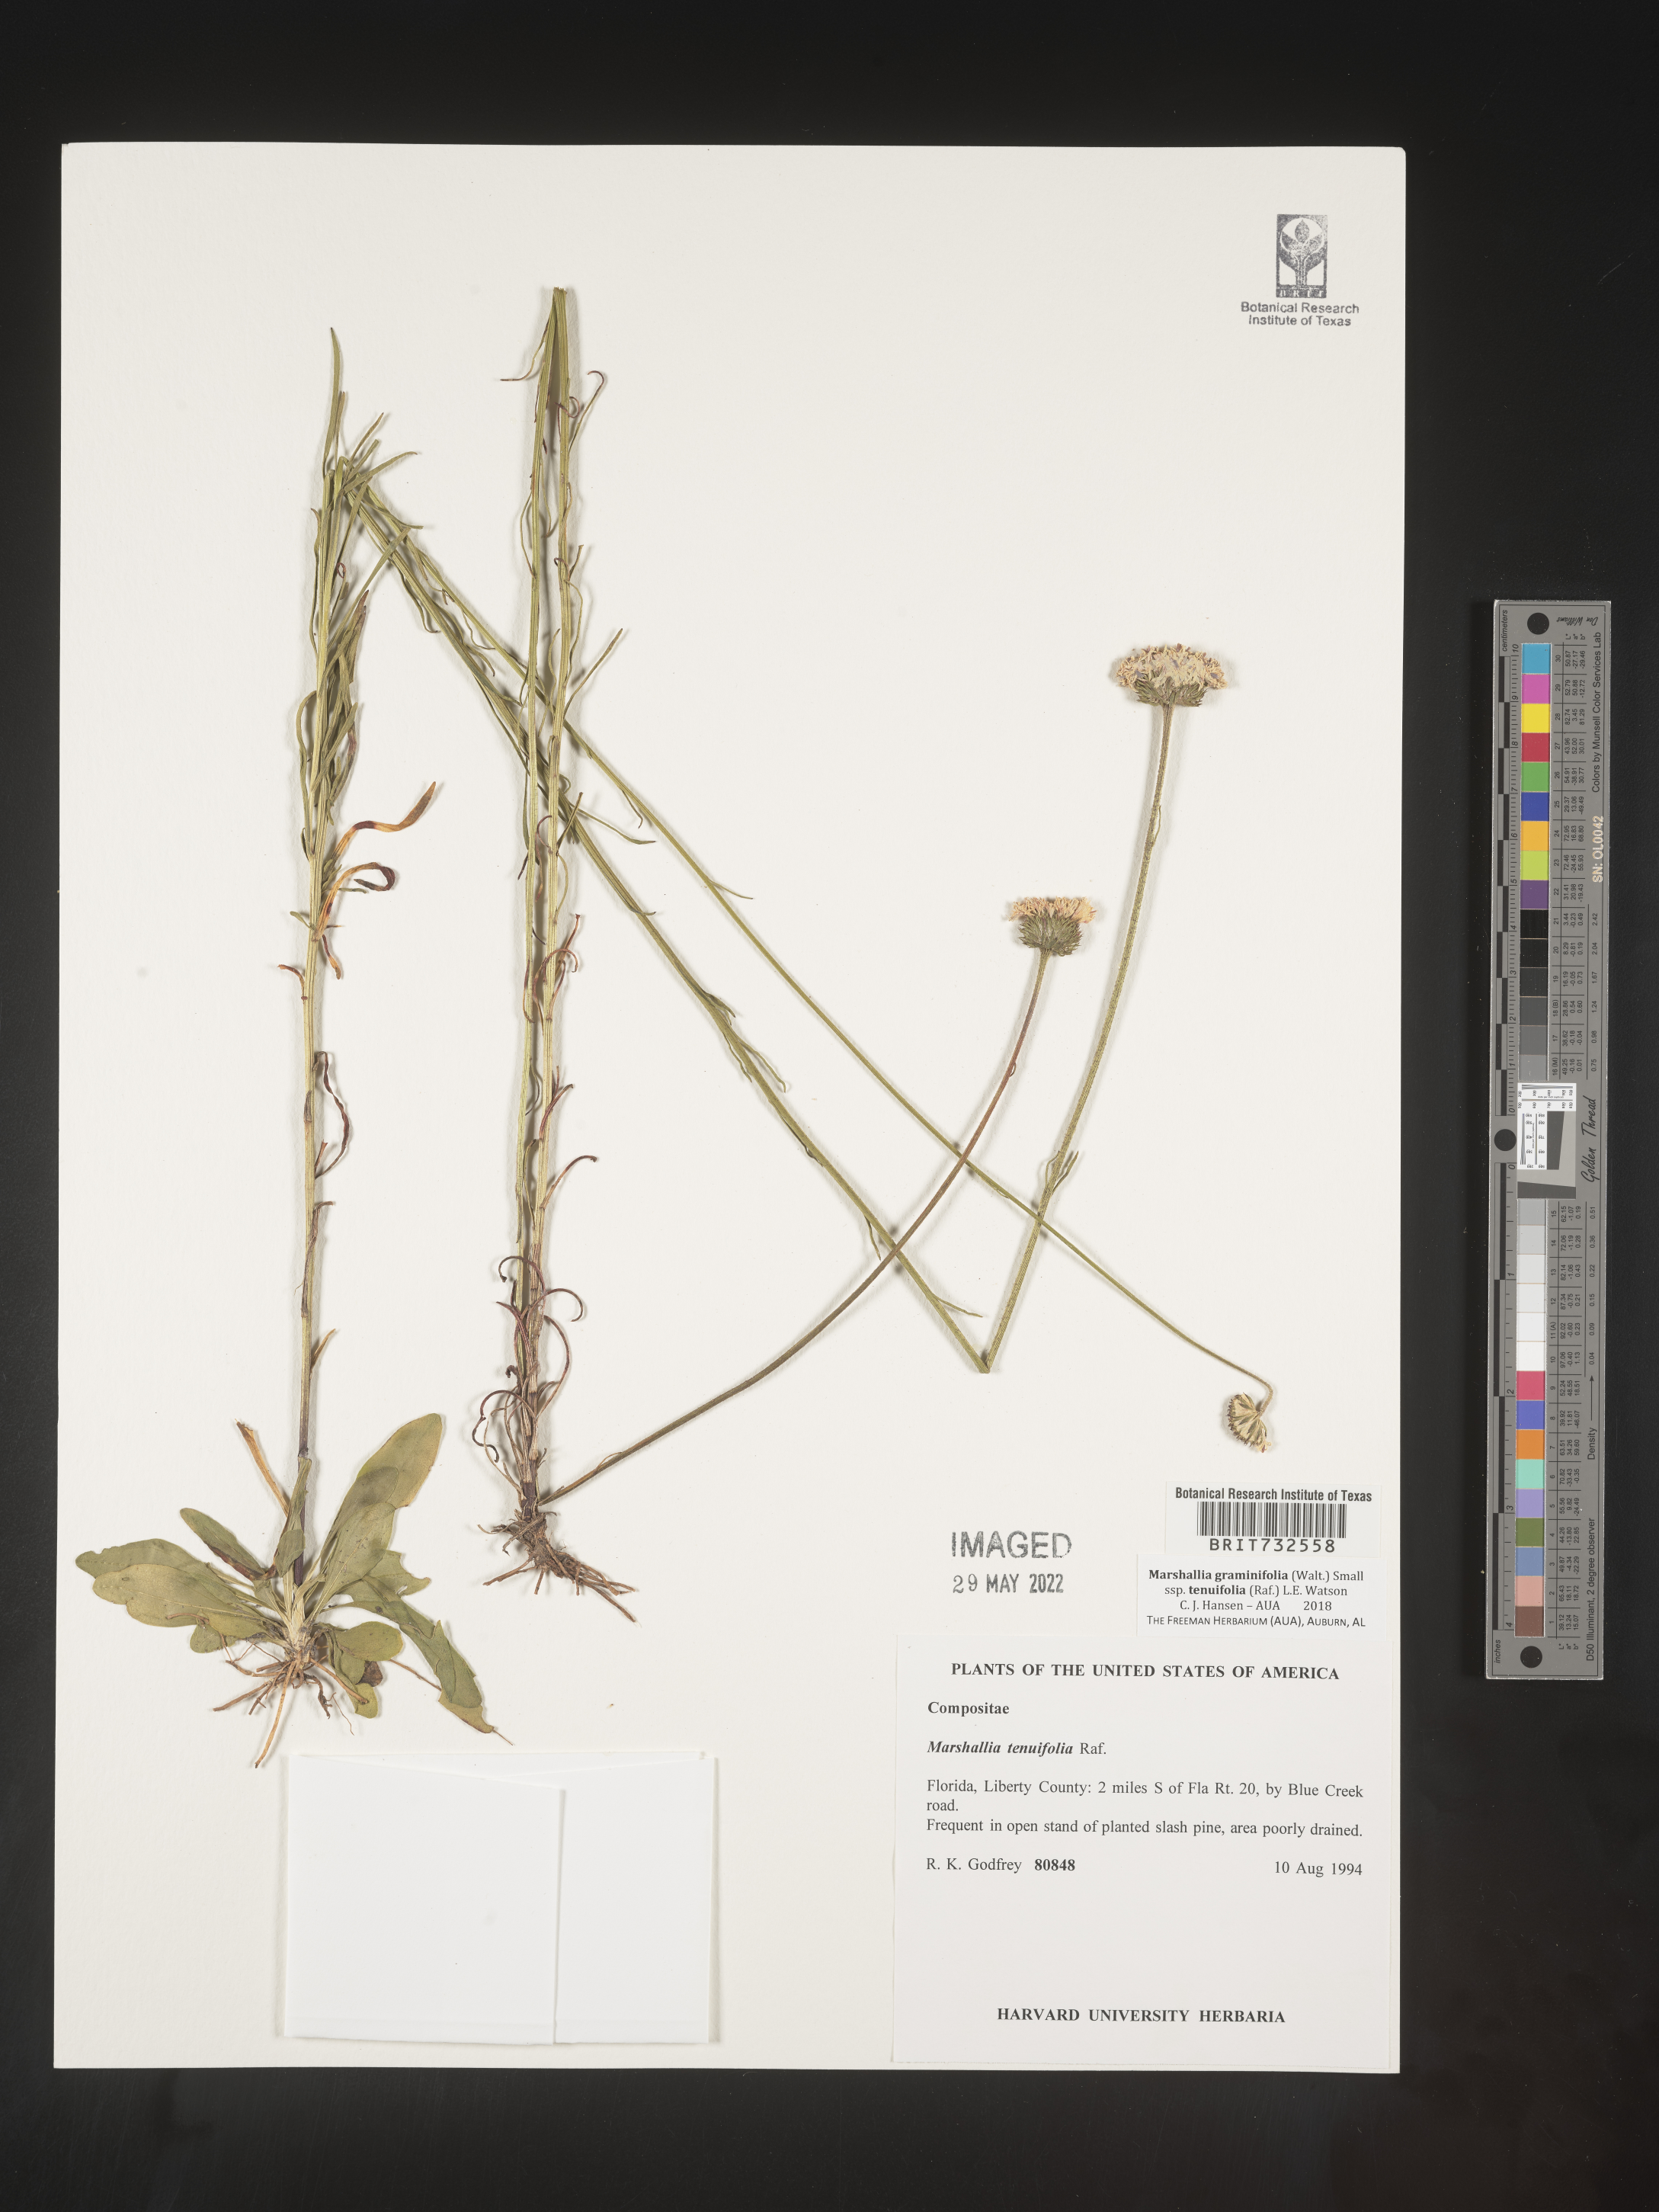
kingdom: Plantae
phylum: Tracheophyta
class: Magnoliopsida
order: Asterales
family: Asteraceae
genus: Marshallia
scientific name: Marshallia graminifolia
